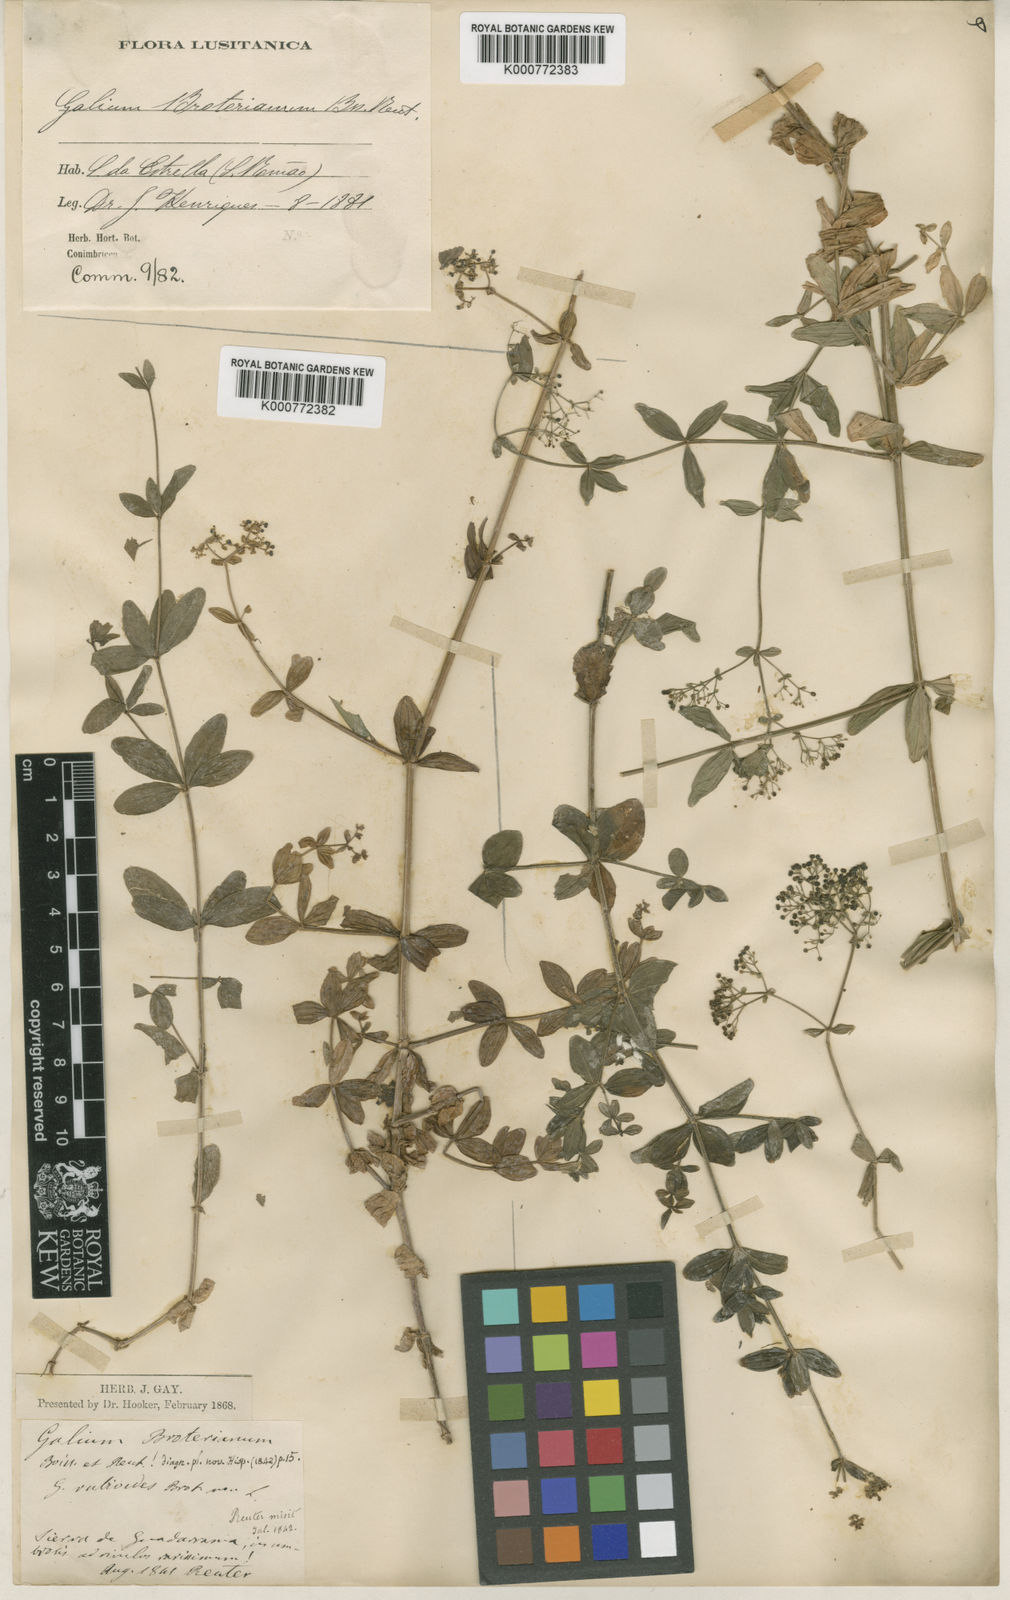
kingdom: Plantae
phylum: Tracheophyta
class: Magnoliopsida
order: Gentianales
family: Rubiaceae
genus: Galium
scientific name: Galium broterianum
